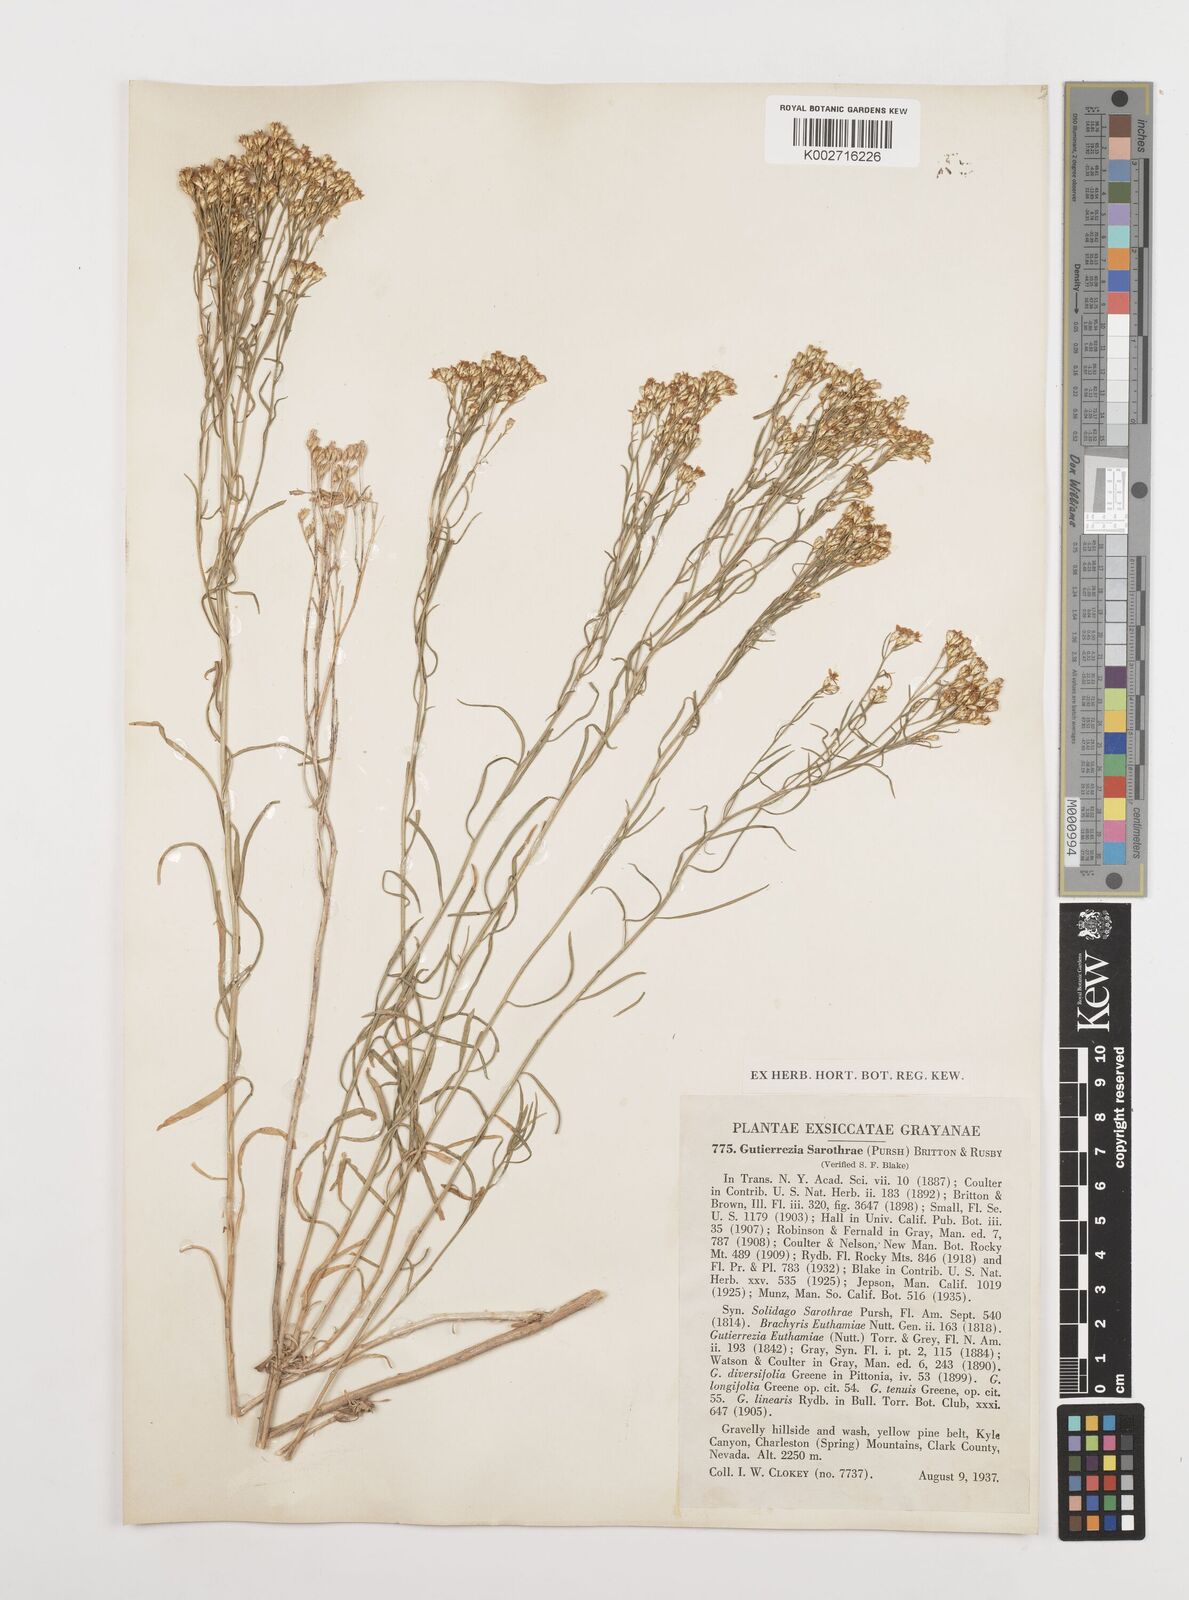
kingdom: Plantae
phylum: Tracheophyta
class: Magnoliopsida
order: Asterales
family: Asteraceae
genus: Gutierrezia
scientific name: Gutierrezia sarothrae
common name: Broom snakeweed
